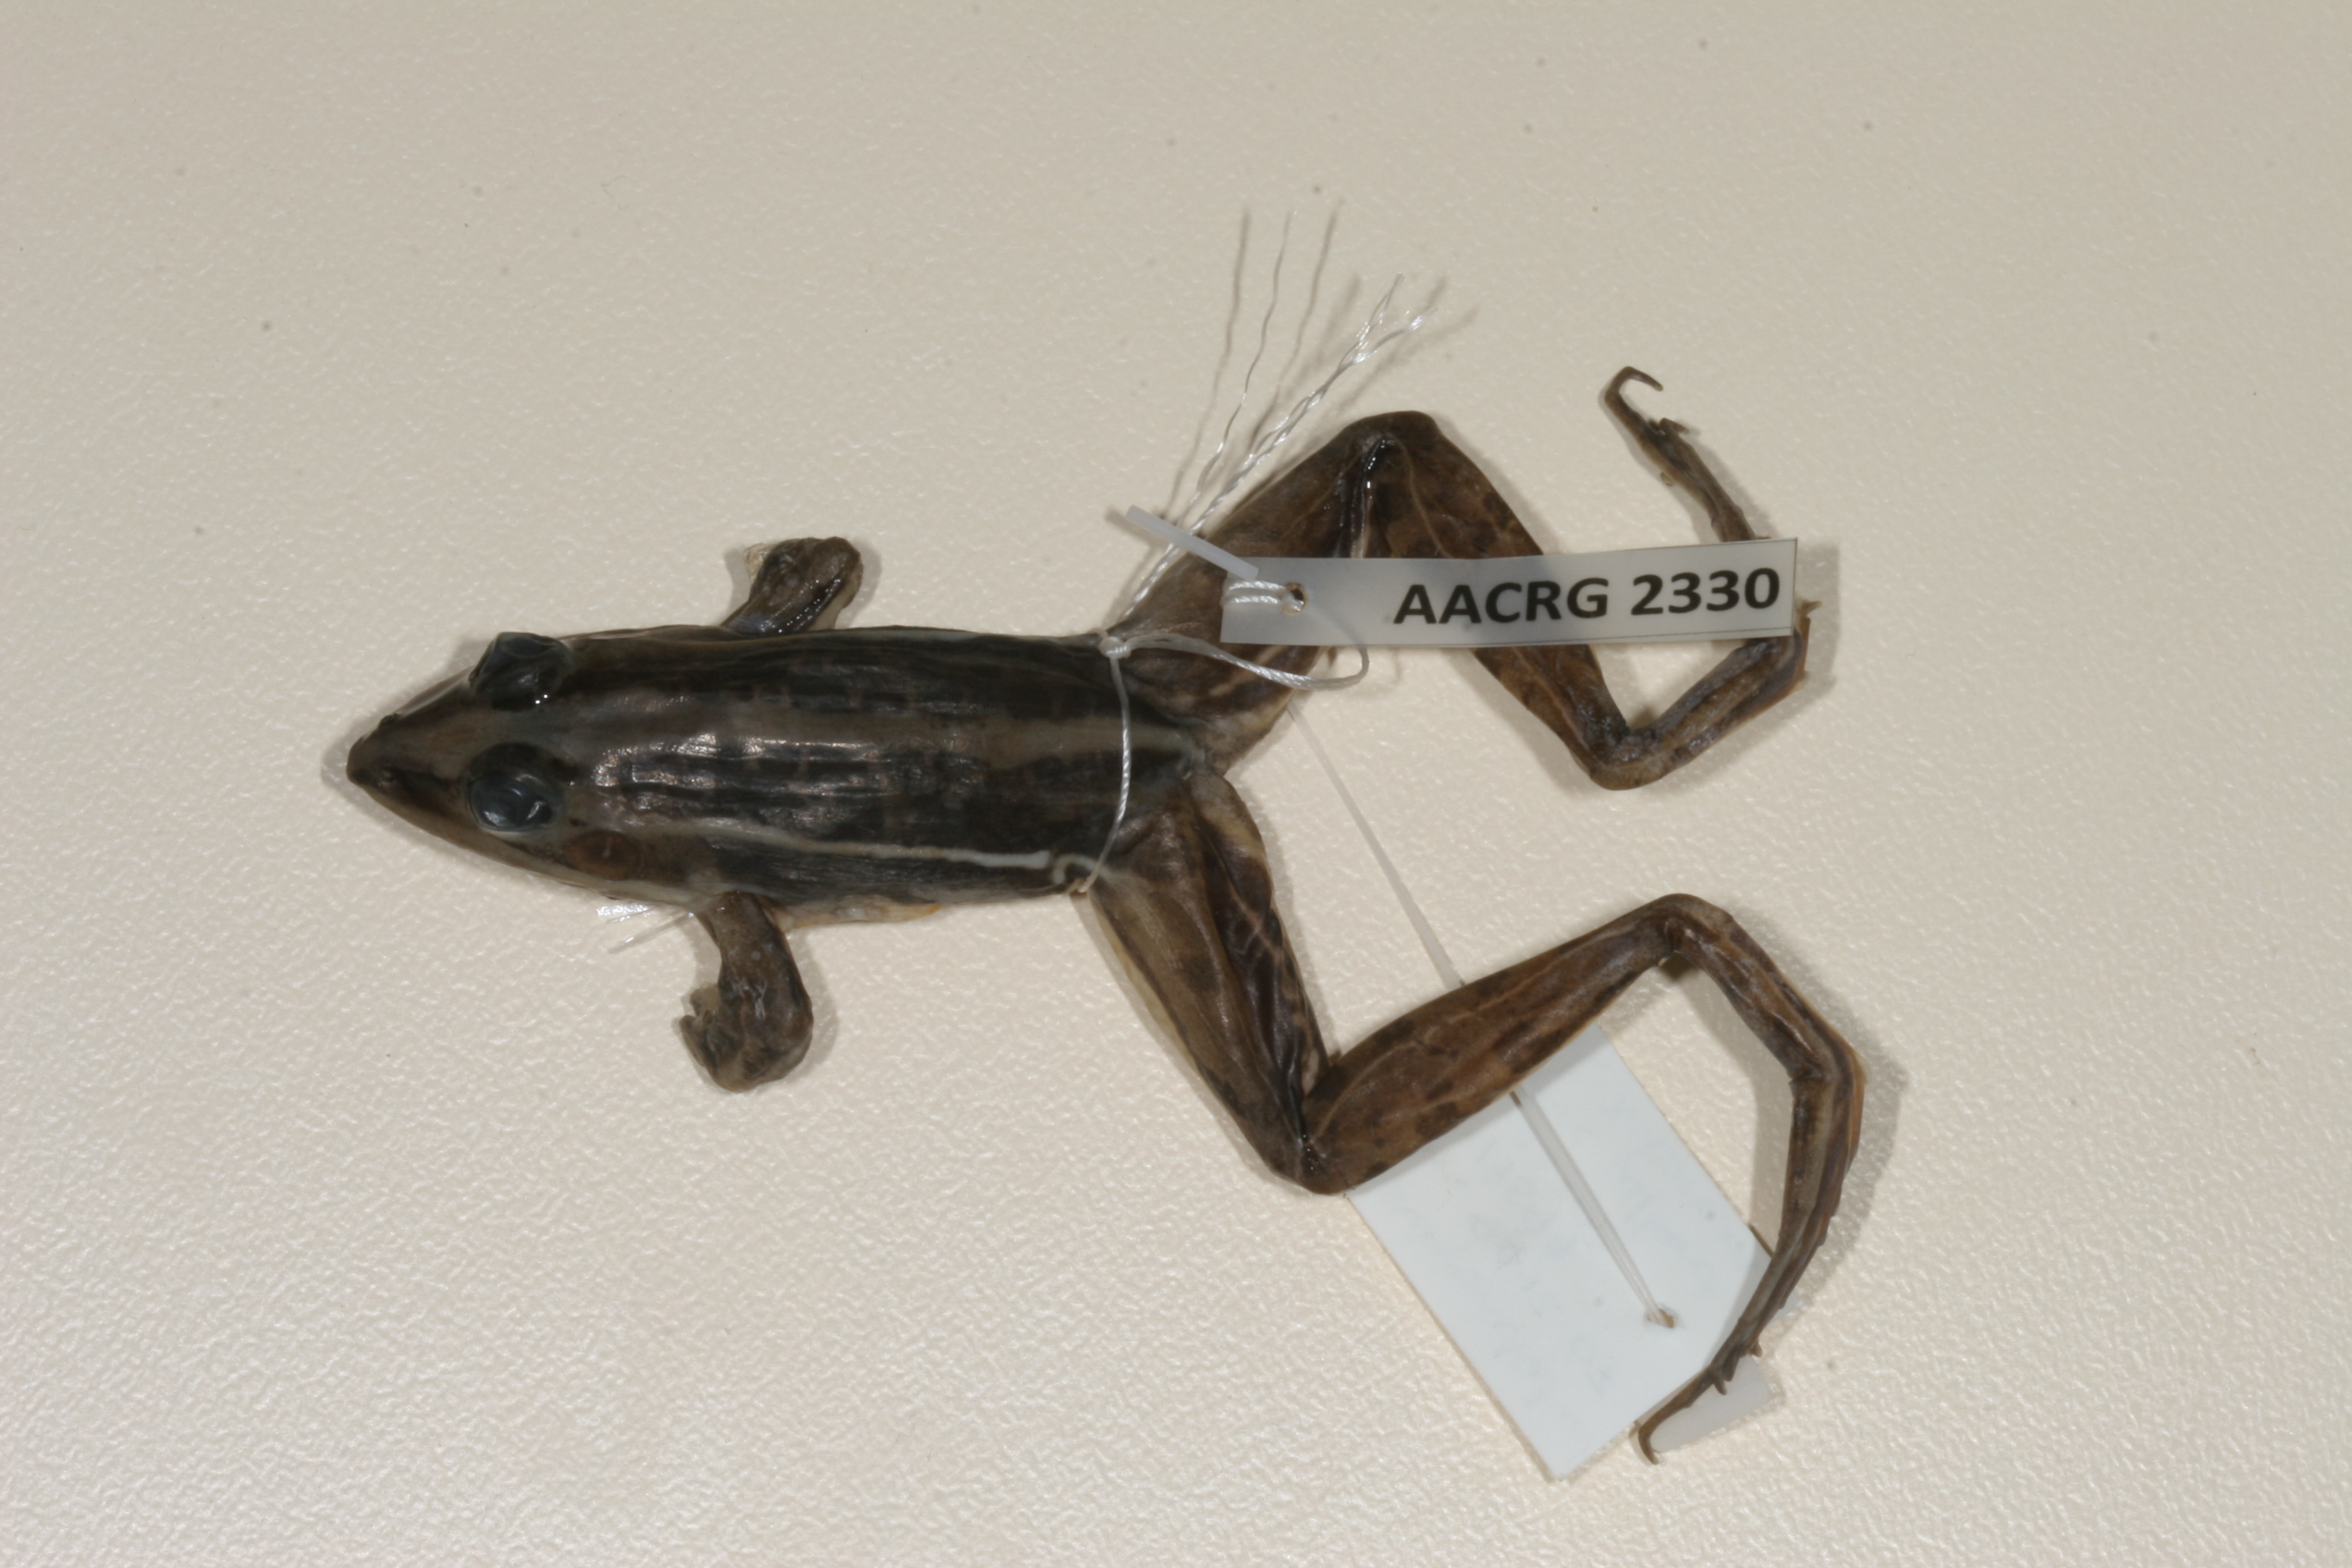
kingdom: Animalia
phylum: Chordata
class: Amphibia
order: Anura
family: Ptychadenidae
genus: Ptychadena
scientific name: Ptychadena subpunctata
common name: Bocage's grassland frog
